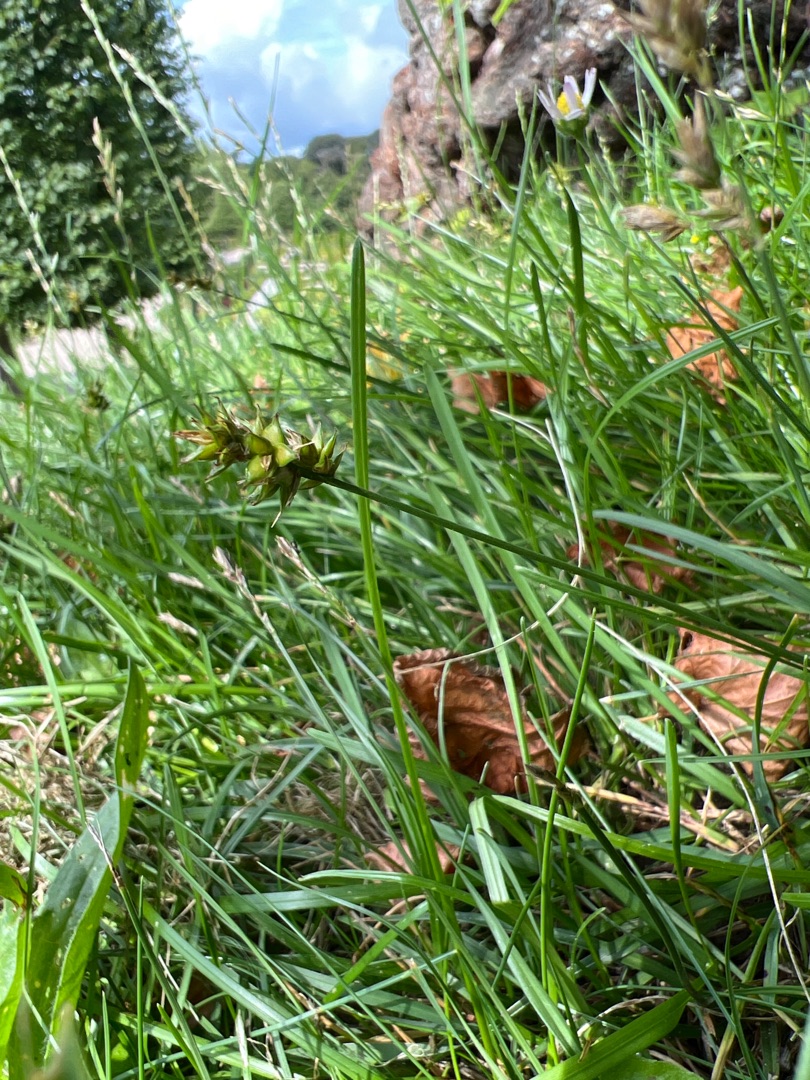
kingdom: Plantae
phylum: Tracheophyta
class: Liliopsida
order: Poales
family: Cyperaceae
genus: Carex
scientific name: Carex pairae
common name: Pigget star
